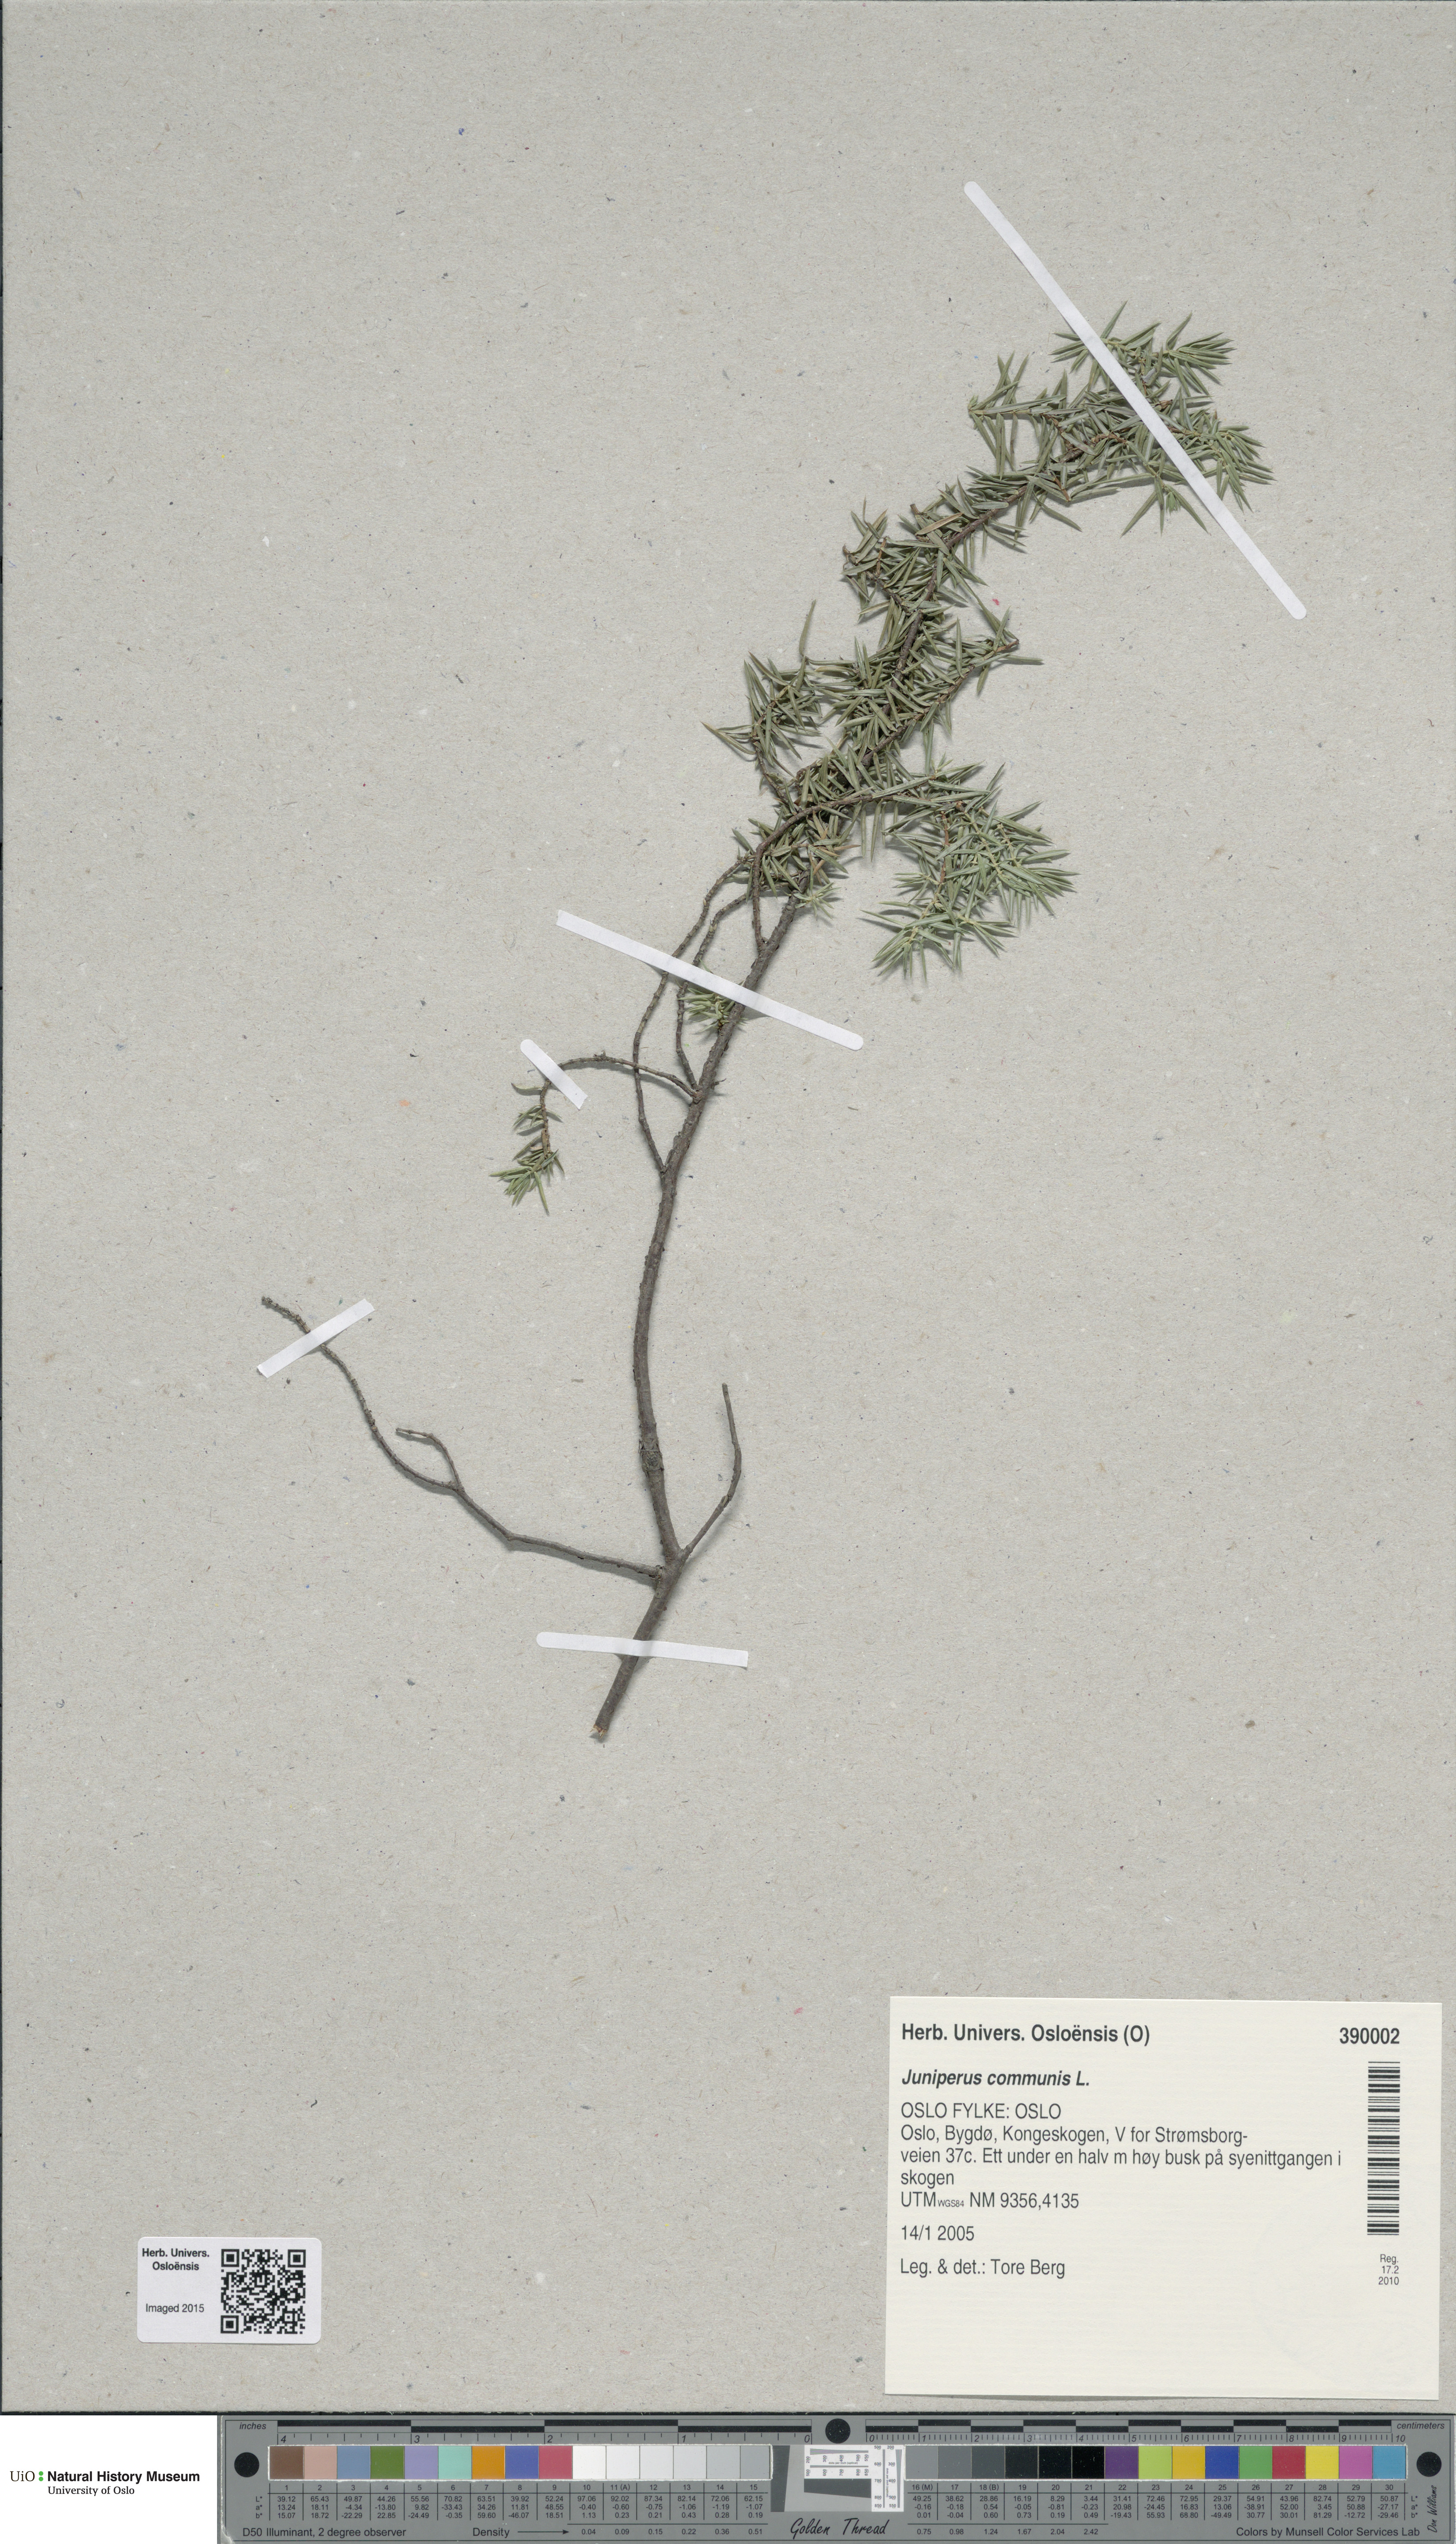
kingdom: Plantae
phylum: Tracheophyta
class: Pinopsida
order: Pinales
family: Cupressaceae
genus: Juniperus
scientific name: Juniperus communis
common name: Common juniper
